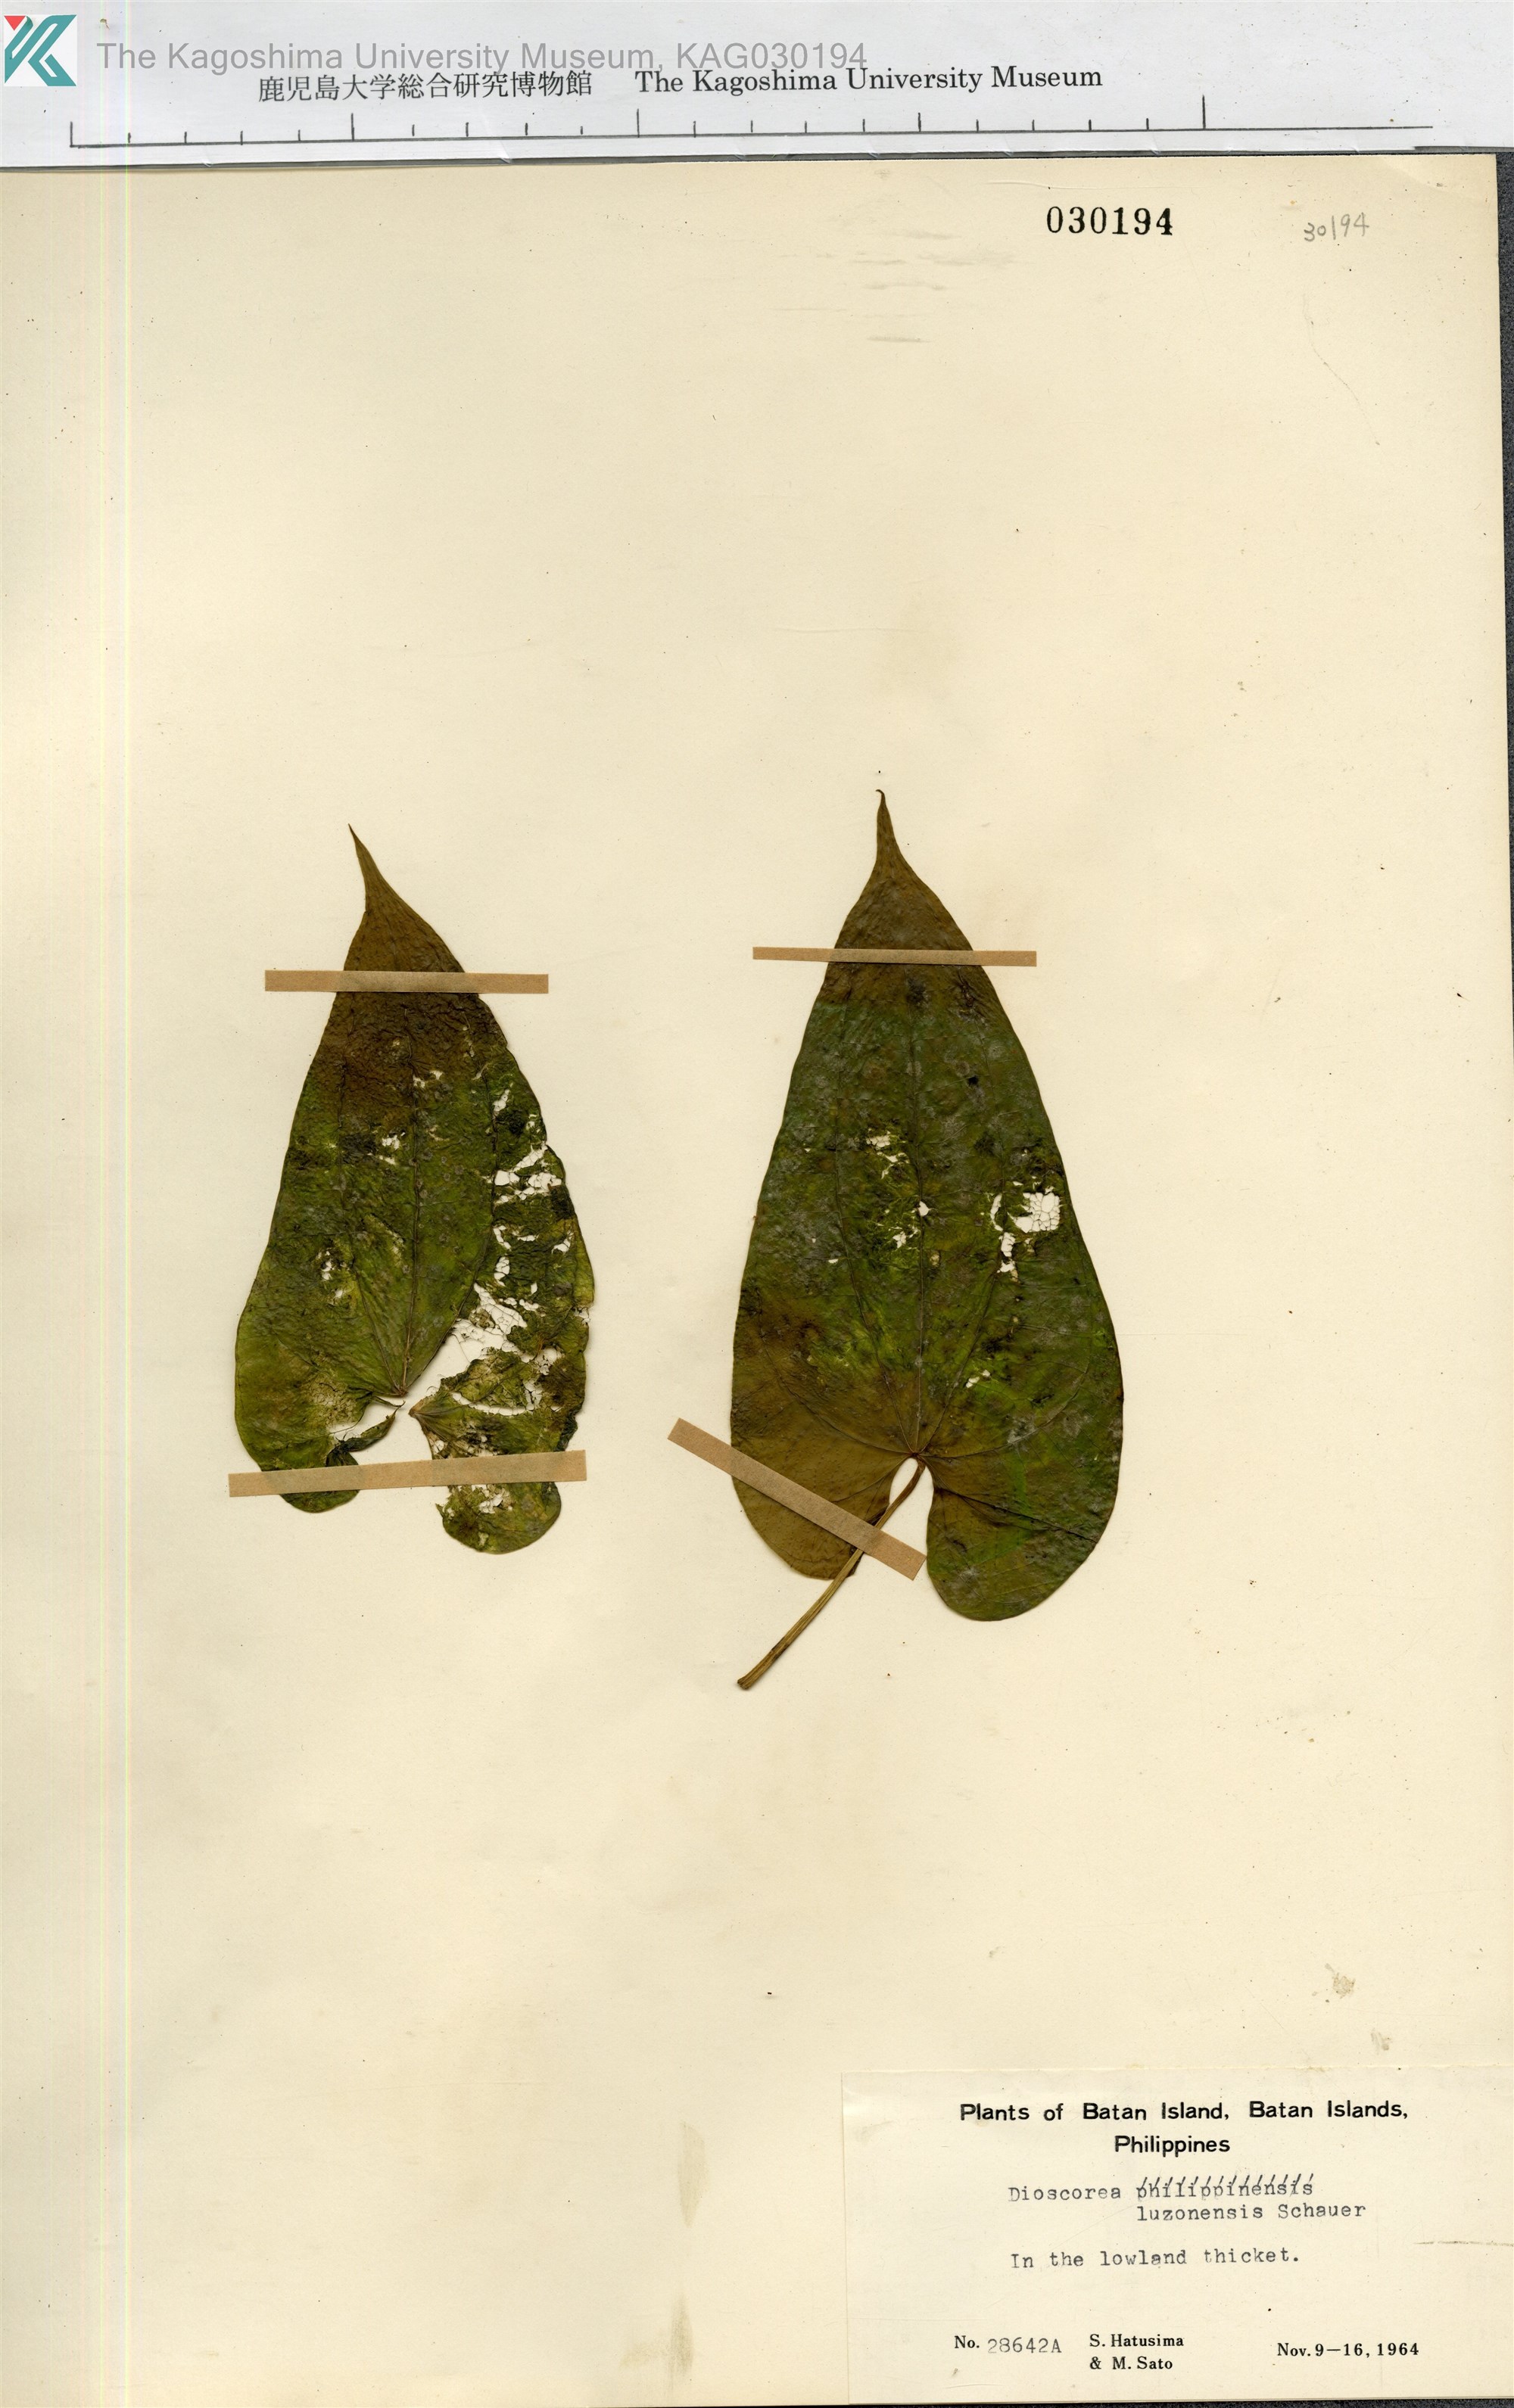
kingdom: Plantae
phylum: Tracheophyta
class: Liliopsida
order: Dioscoreales
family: Dioscoreaceae
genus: Dioscorea
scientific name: Dioscorea luzonensis
